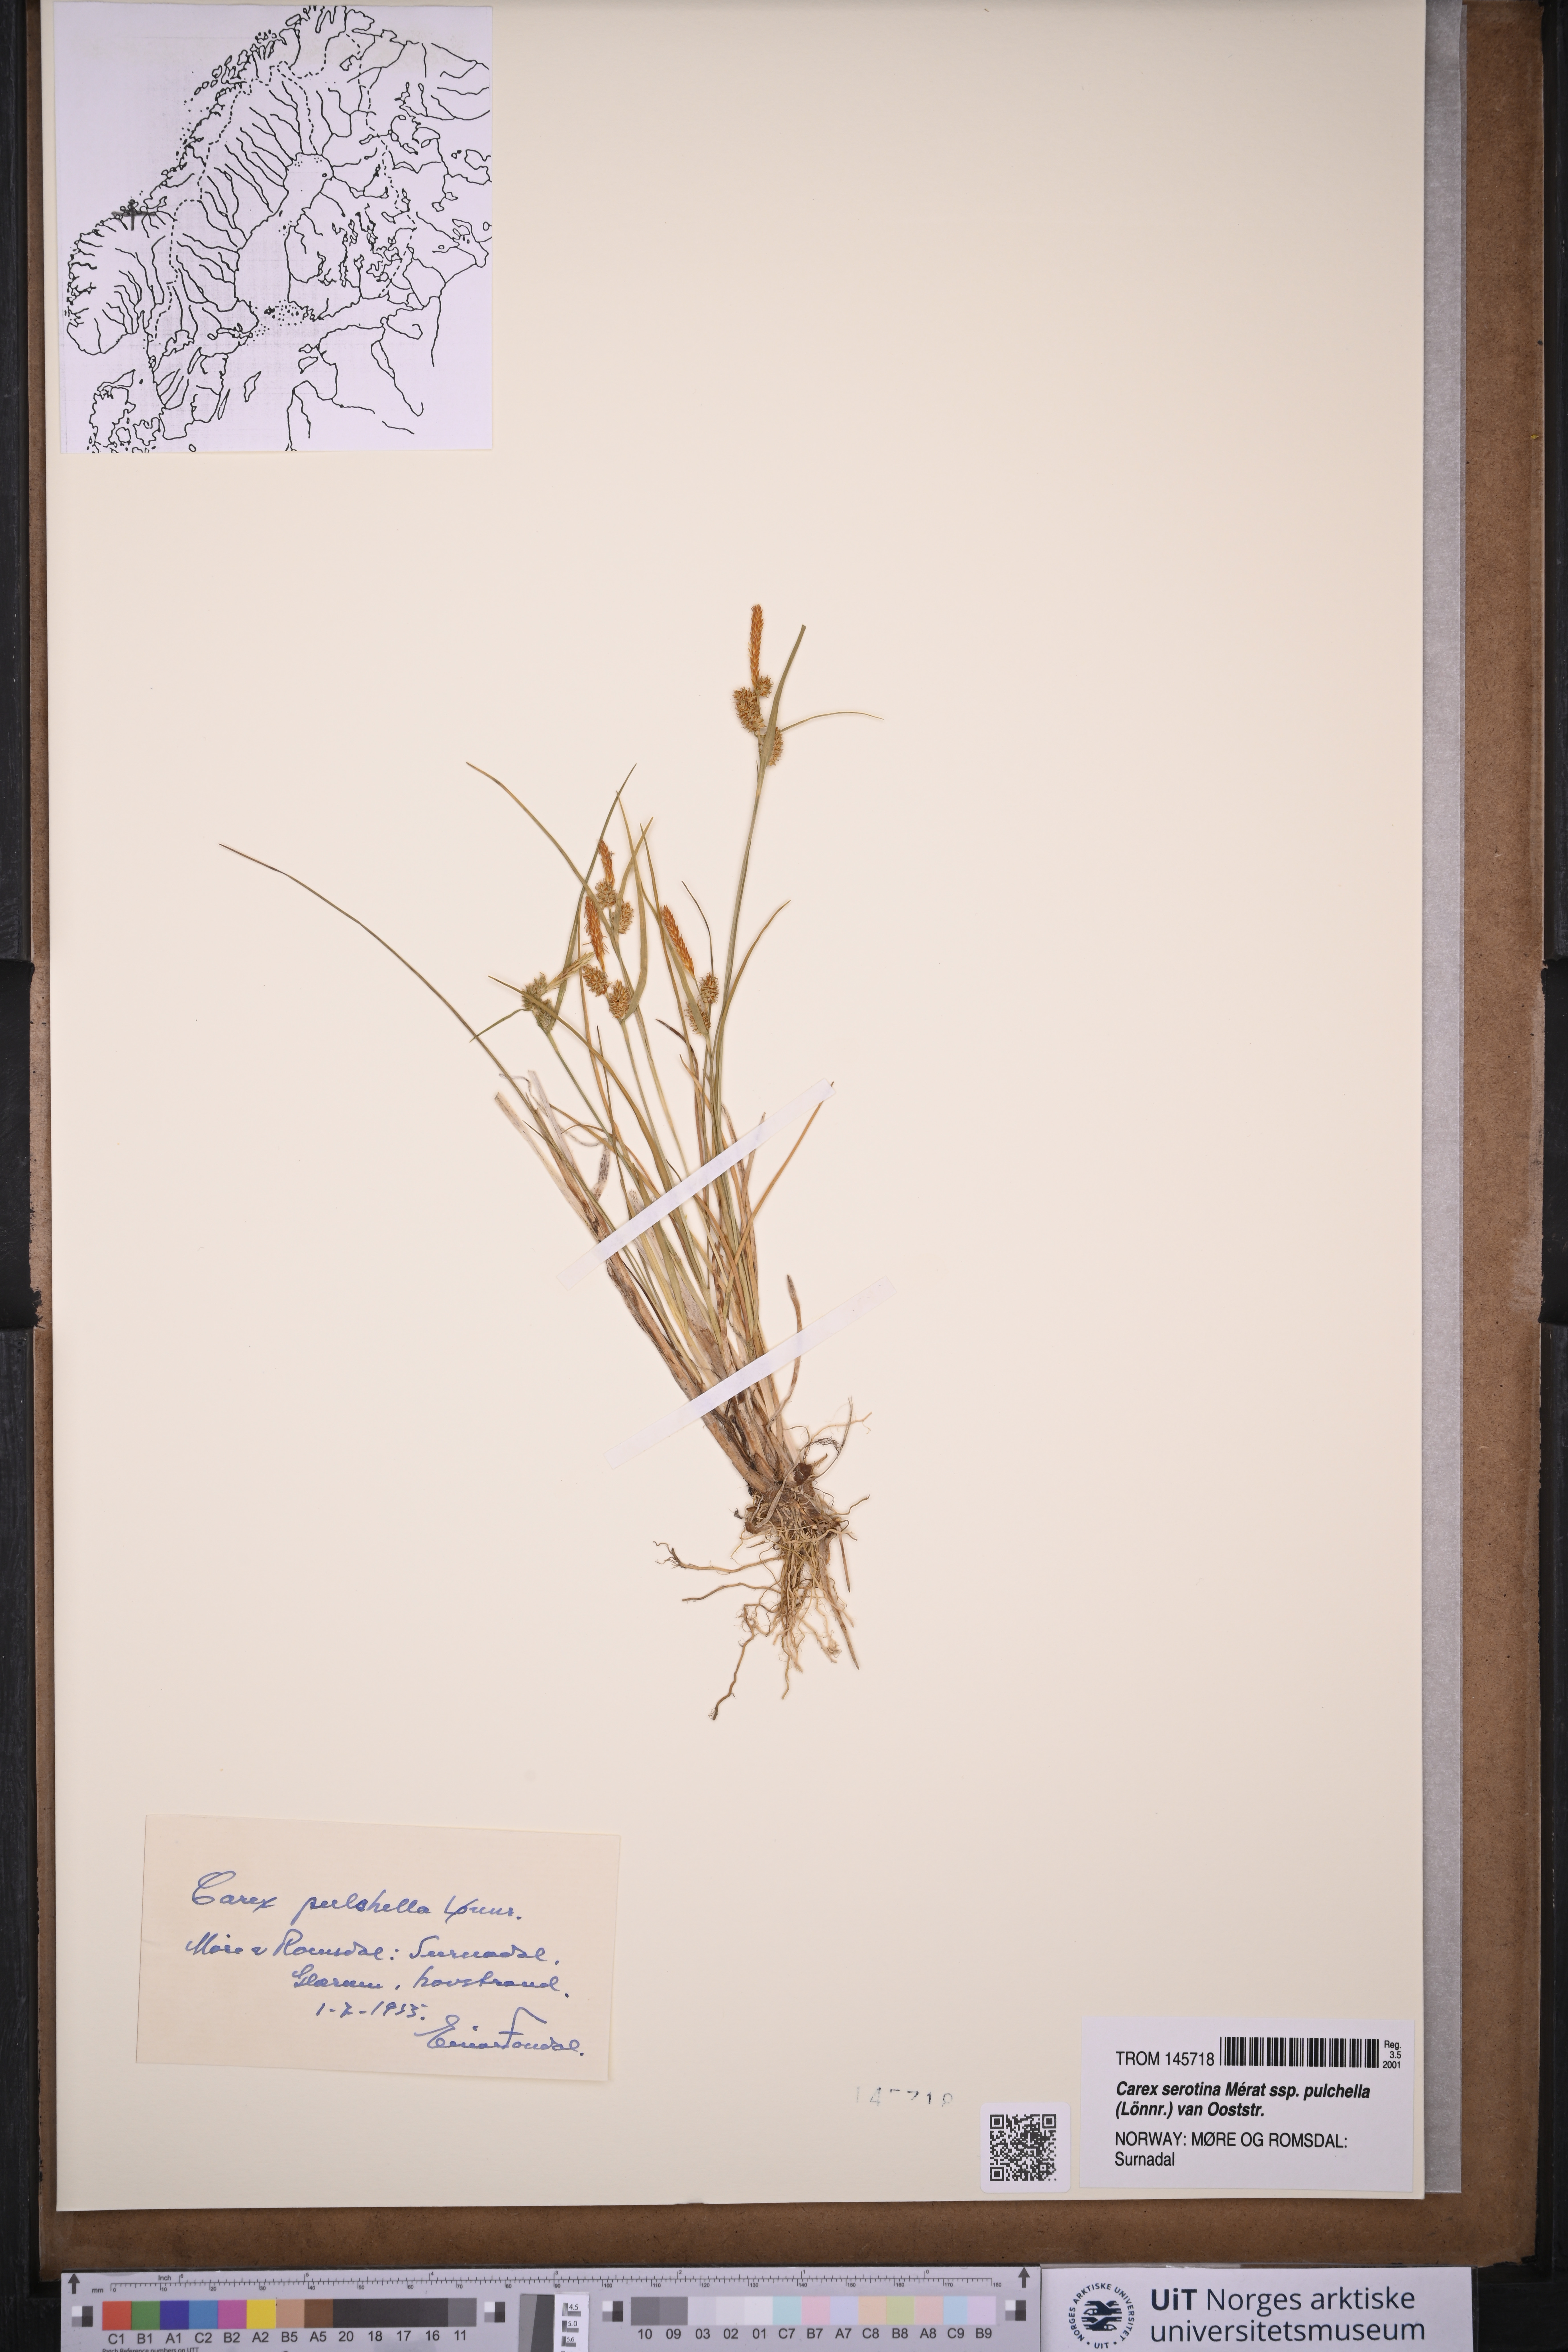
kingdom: Plantae
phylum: Tracheophyta
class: Liliopsida
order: Poales
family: Cyperaceae
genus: Carex
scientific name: Carex oederi
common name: Common & small-fruited yellow-sedge
